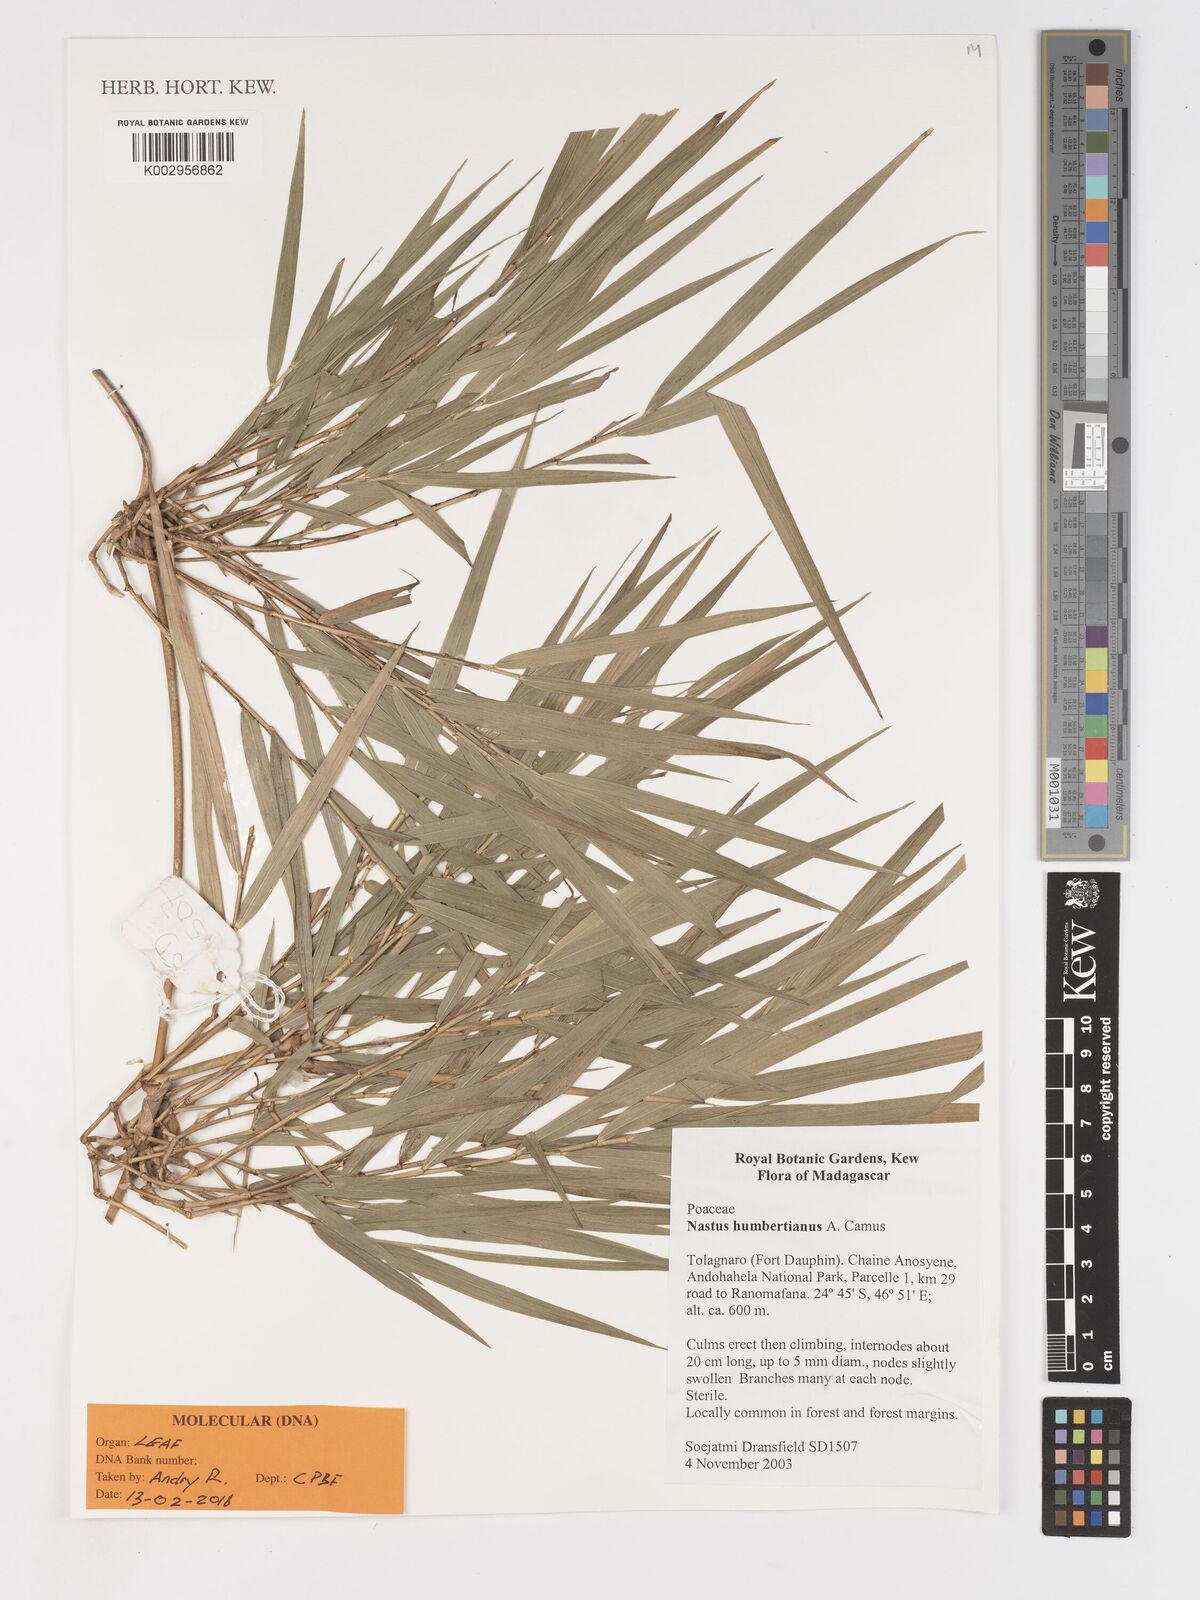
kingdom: Plantae
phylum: Tracheophyta
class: Liliopsida
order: Poales
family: Poaceae
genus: Nastus
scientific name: Nastus humbertianus
